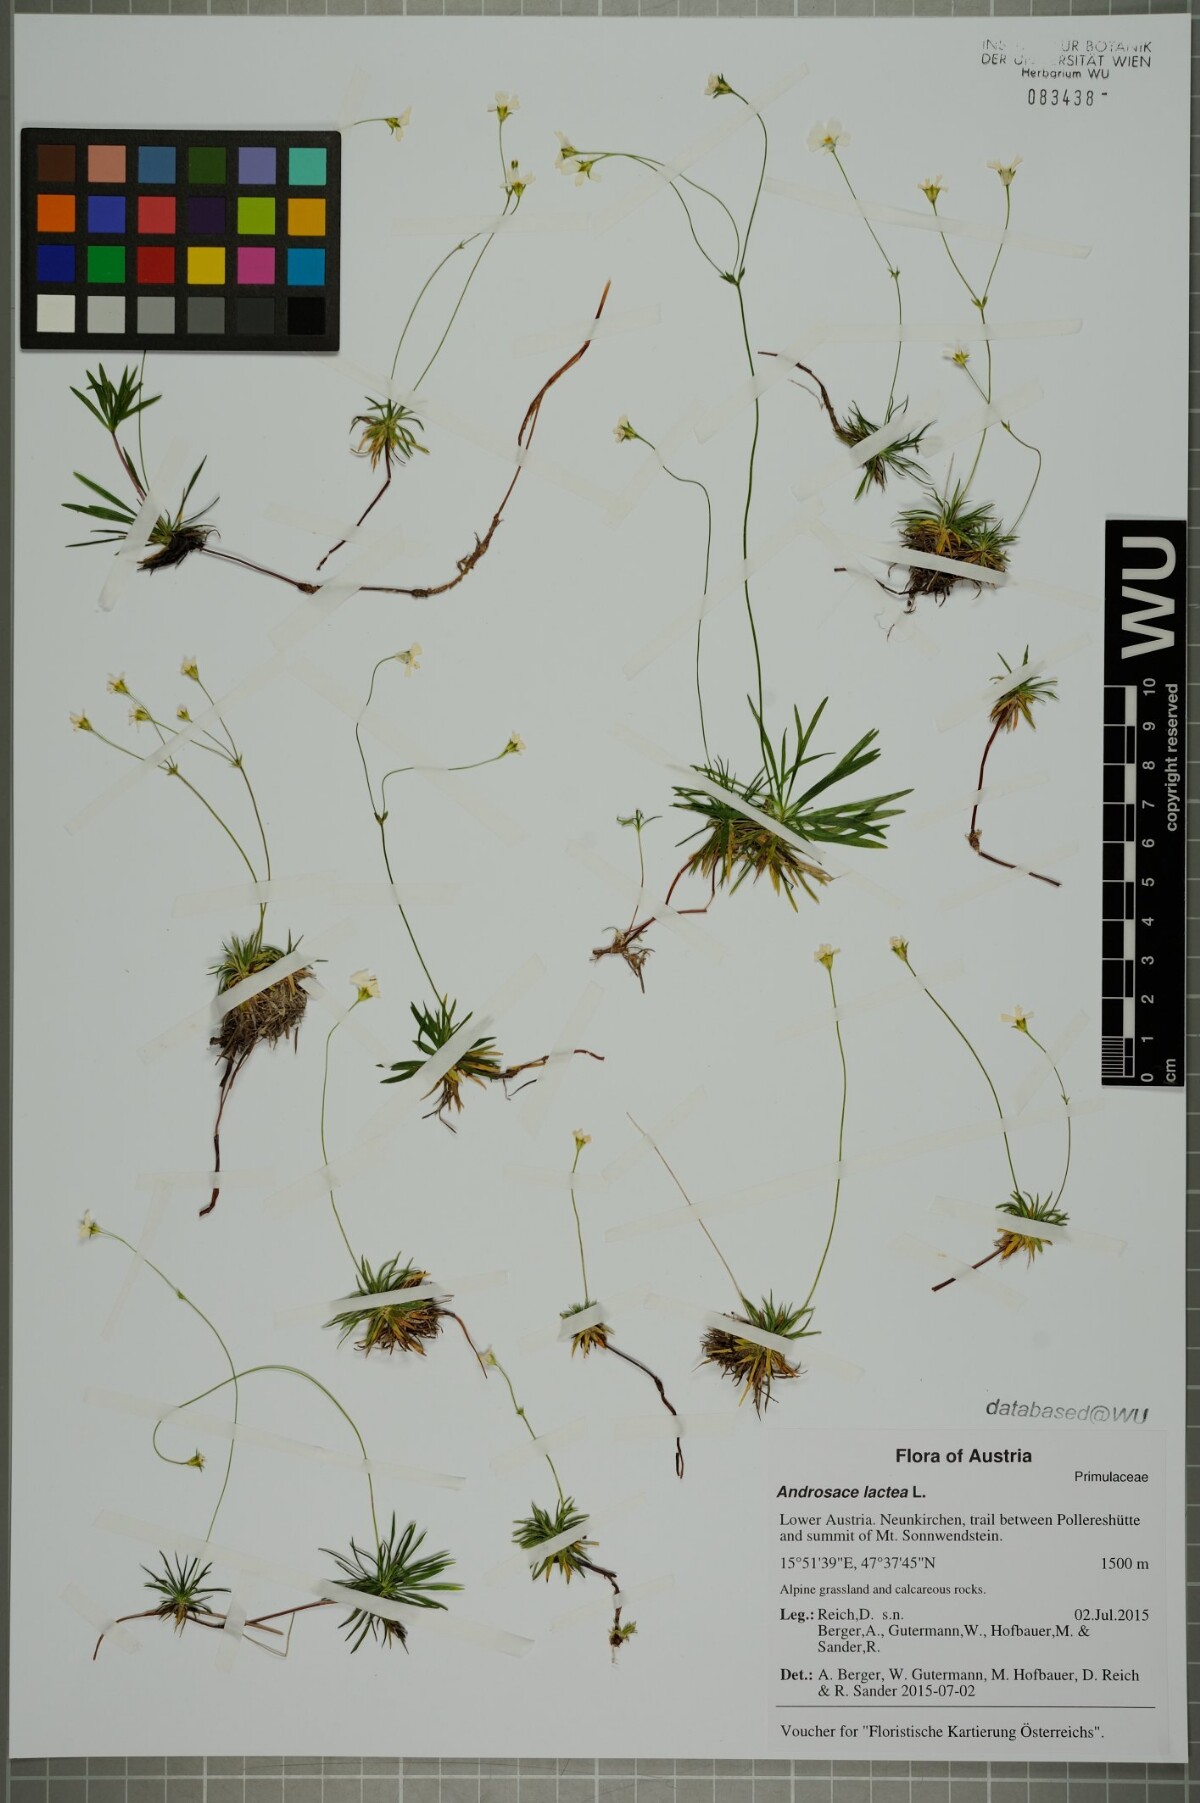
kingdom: Plantae
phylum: Tracheophyta
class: Magnoliopsida
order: Ericales
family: Primulaceae
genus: Androsace
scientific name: Androsace lactea
